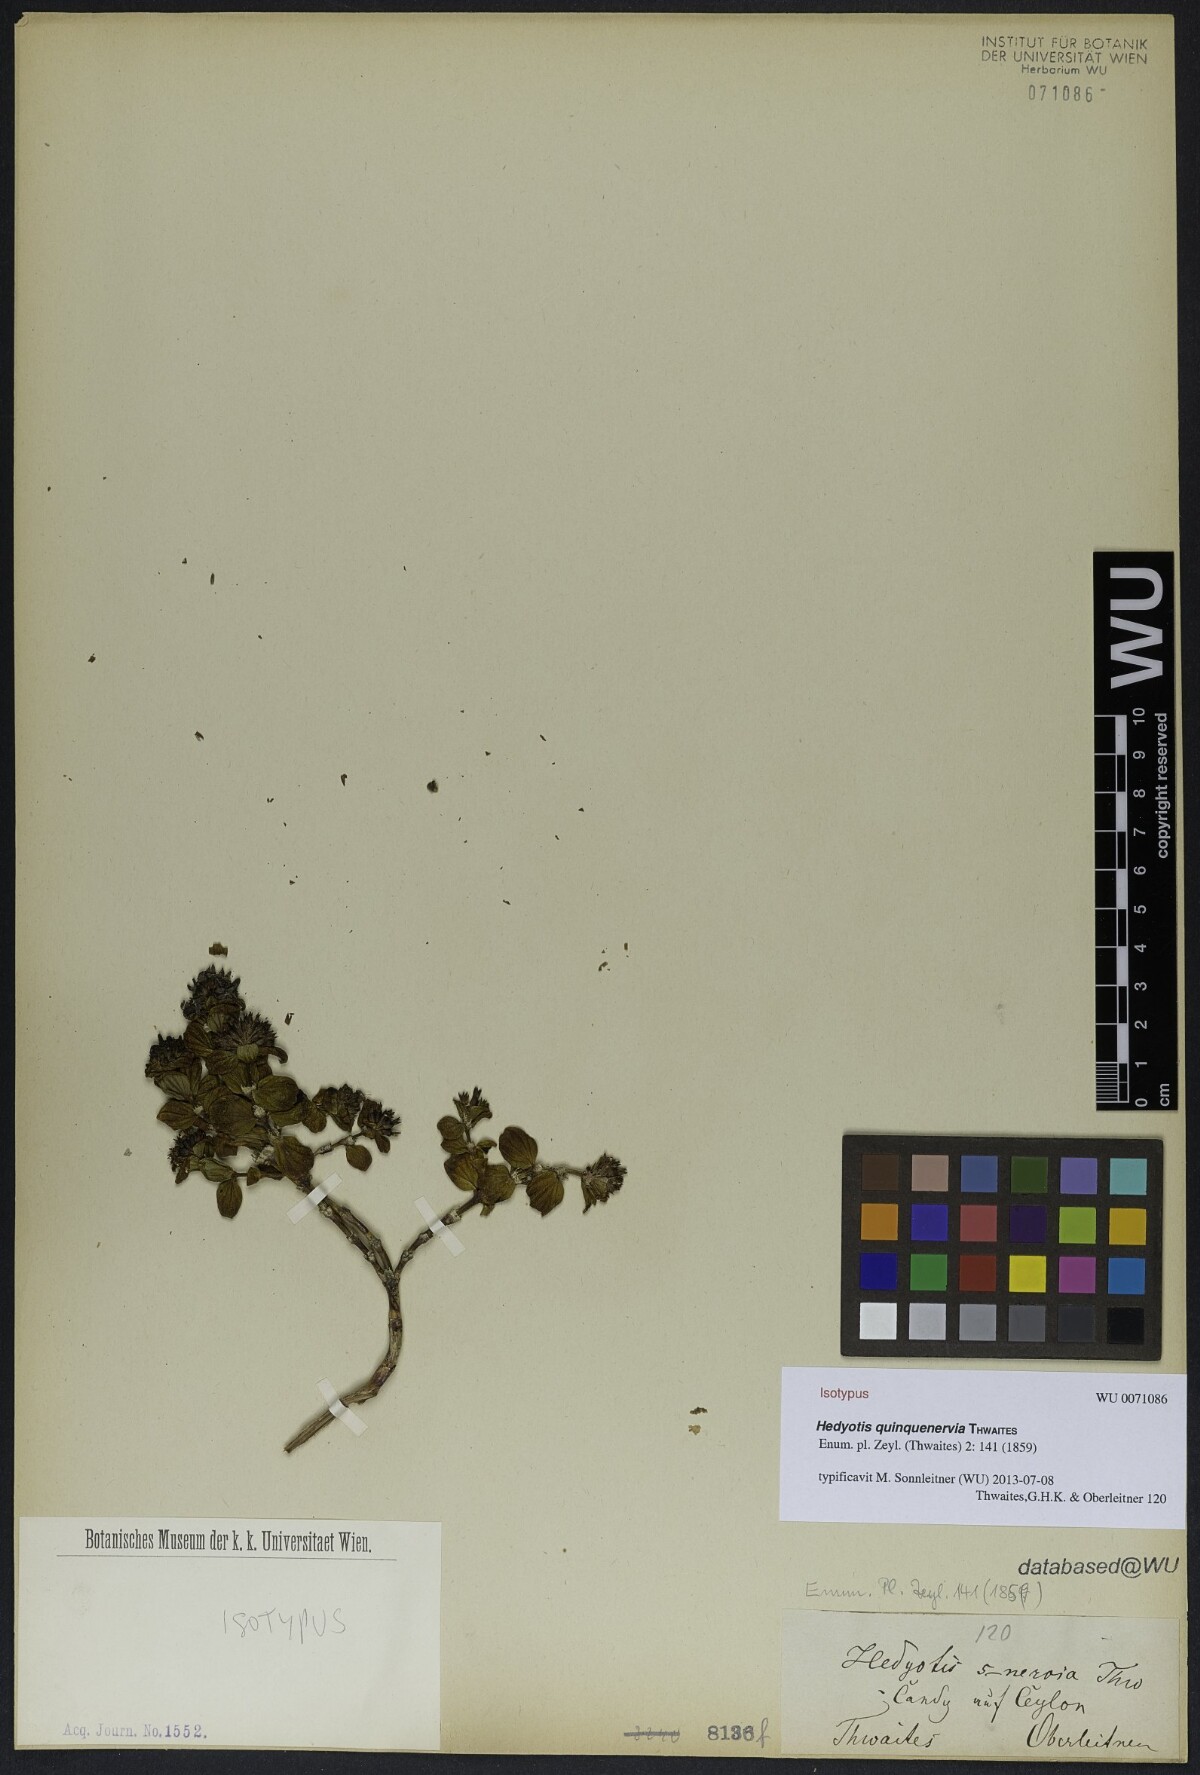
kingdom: Plantae
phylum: Tracheophyta
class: Magnoliopsida
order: Gentianales
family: Rubiaceae
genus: Hedyotis
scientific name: Hedyotis quinquenervia
